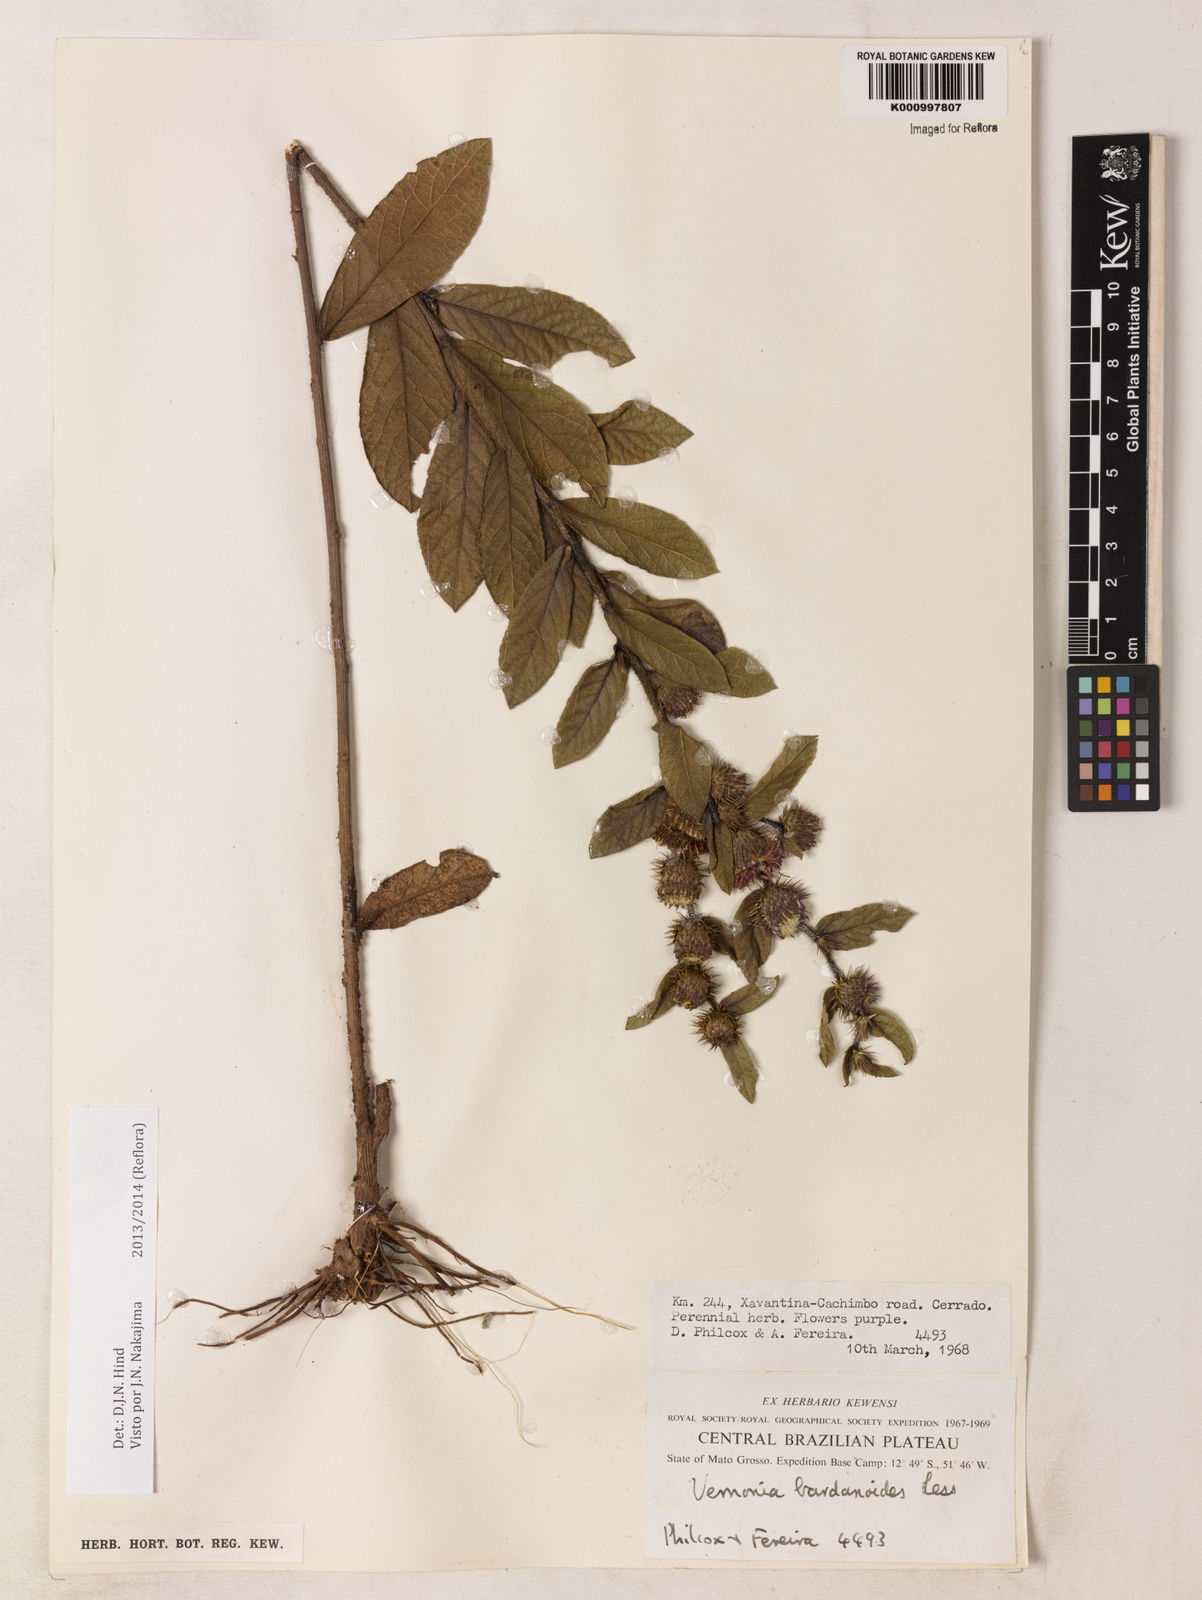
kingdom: Plantae
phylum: Tracheophyta
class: Magnoliopsida
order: Asterales
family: Asteraceae
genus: Lessingianthus
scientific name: Lessingianthus bardanioides
